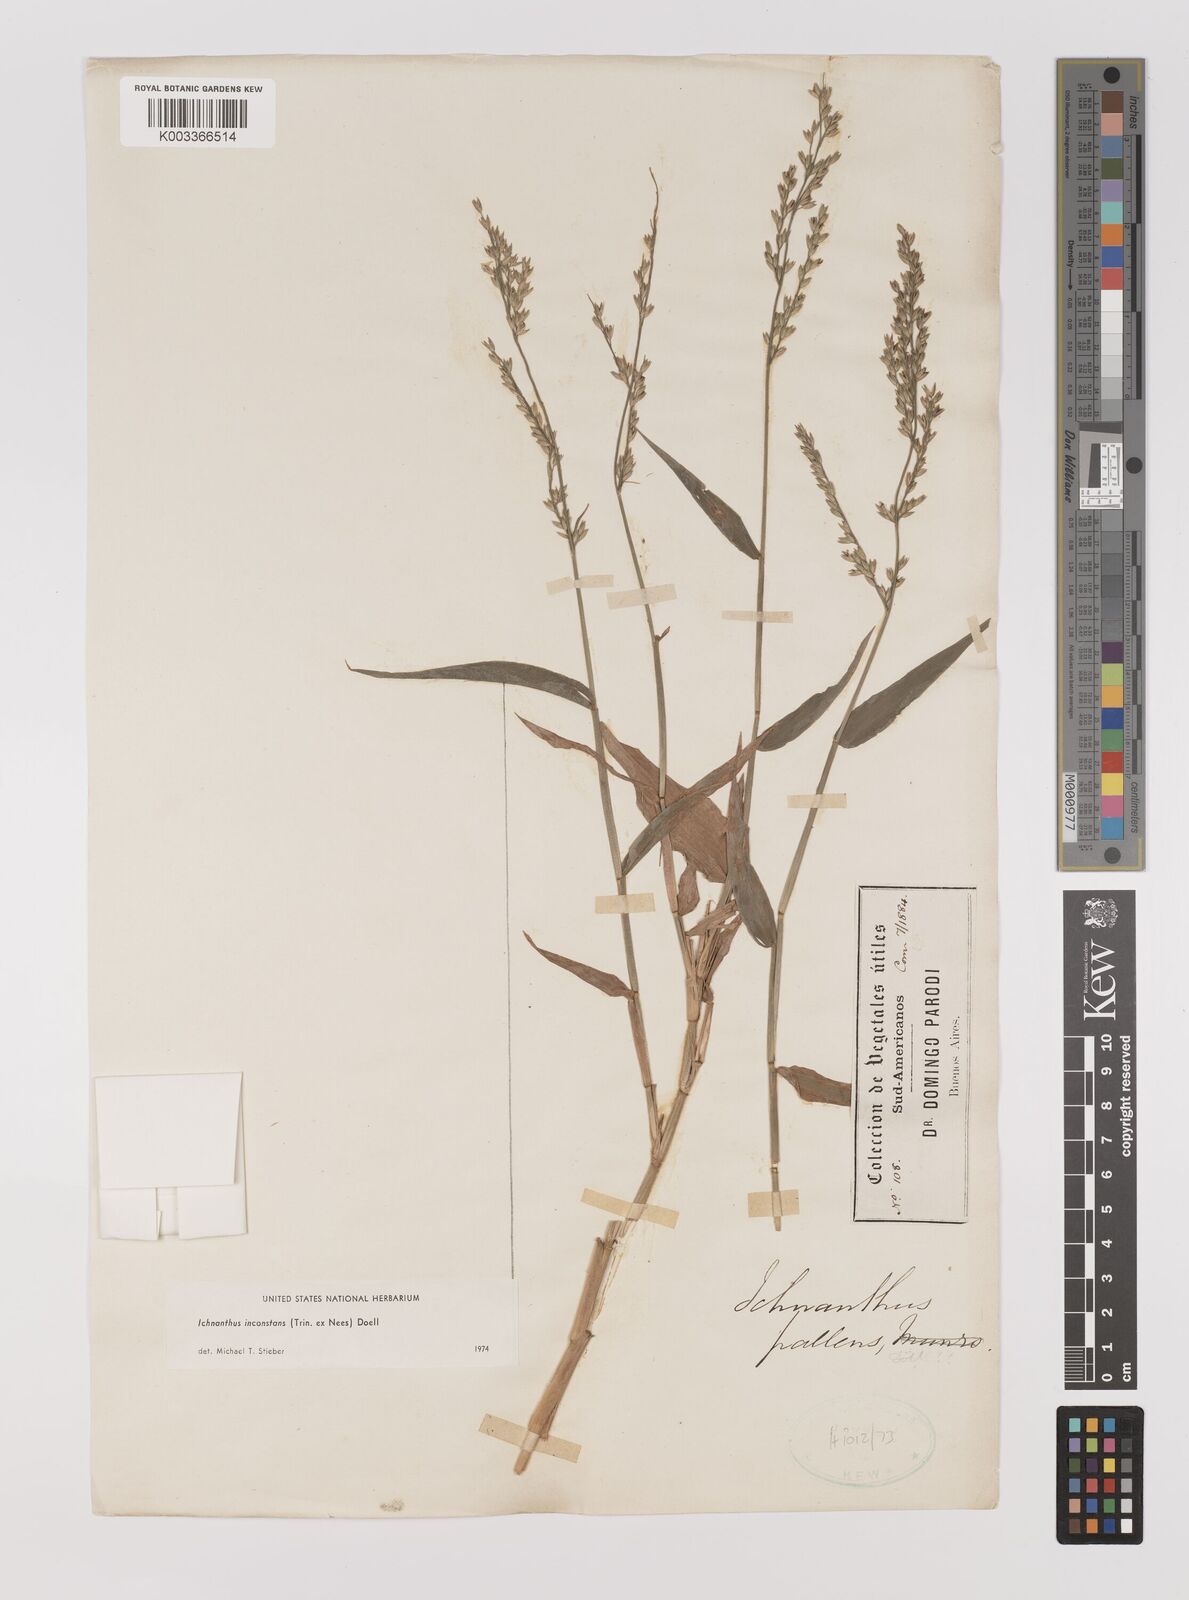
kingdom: Plantae
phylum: Tracheophyta
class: Liliopsida
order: Poales
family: Poaceae
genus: Ichnanthus
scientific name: Ichnanthus inconstans
